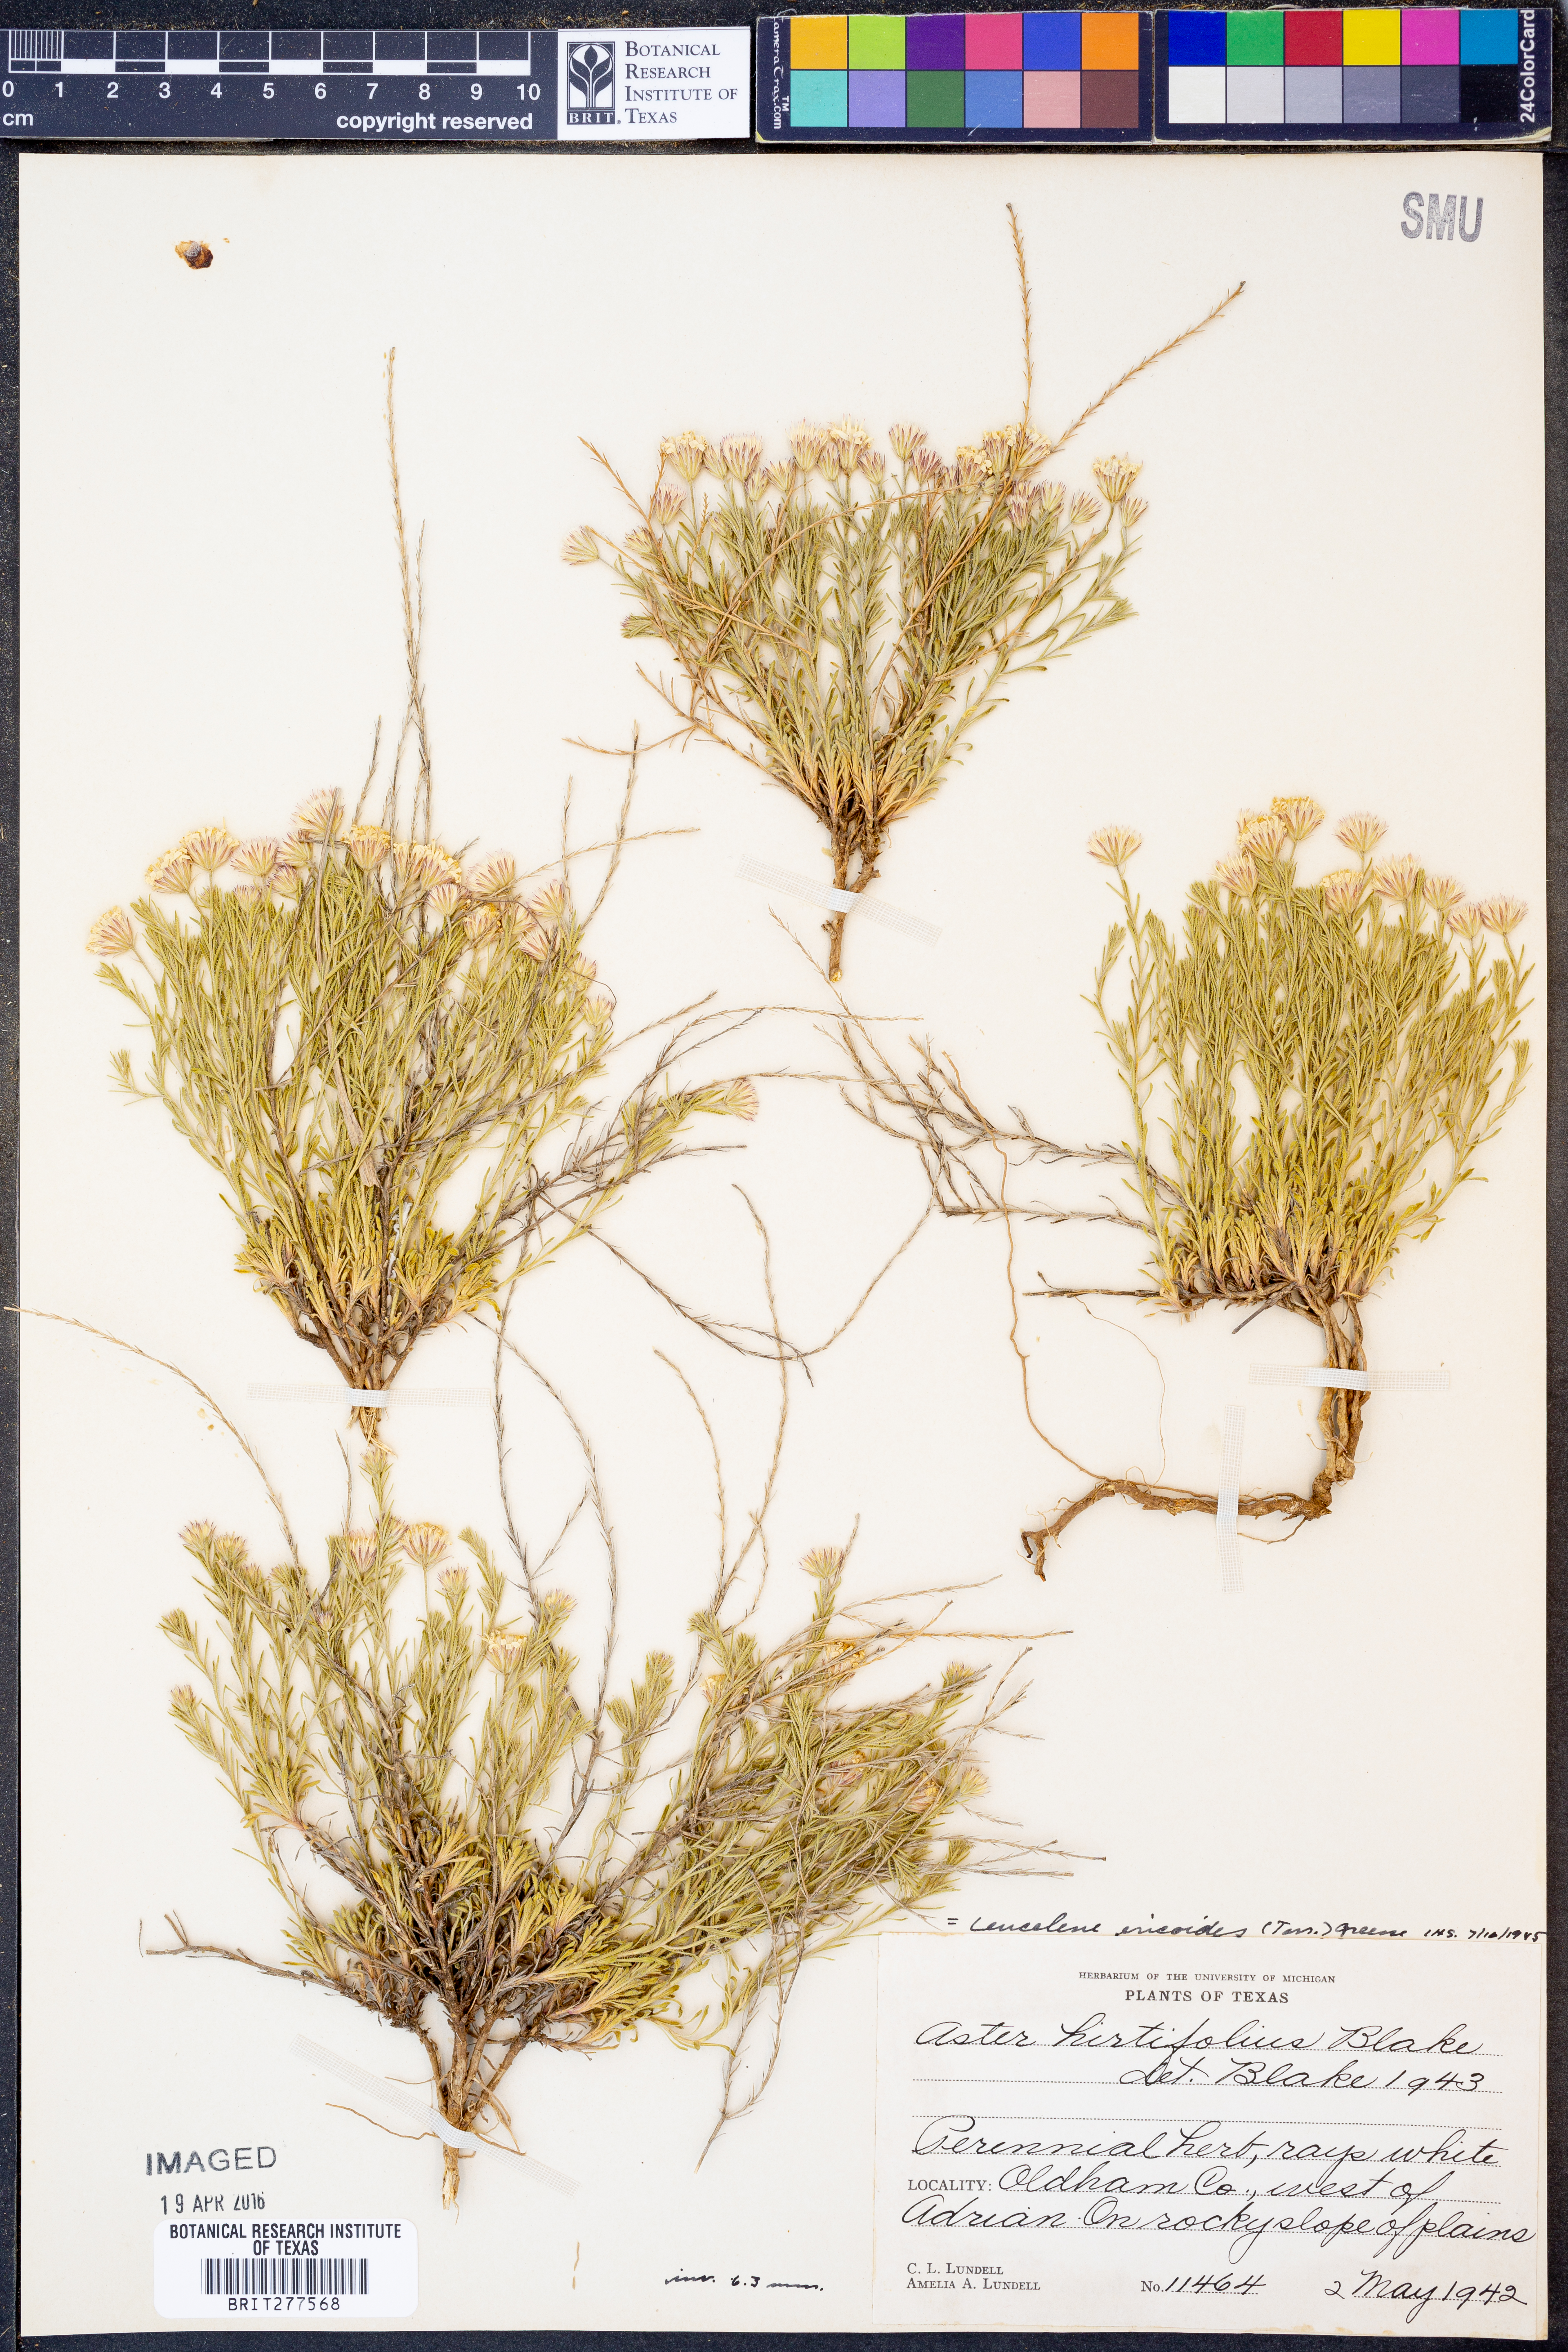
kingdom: Plantae
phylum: Tracheophyta
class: Magnoliopsida
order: Asterales
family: Asteraceae
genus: Chaetopappa
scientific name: Chaetopappa ericoides
